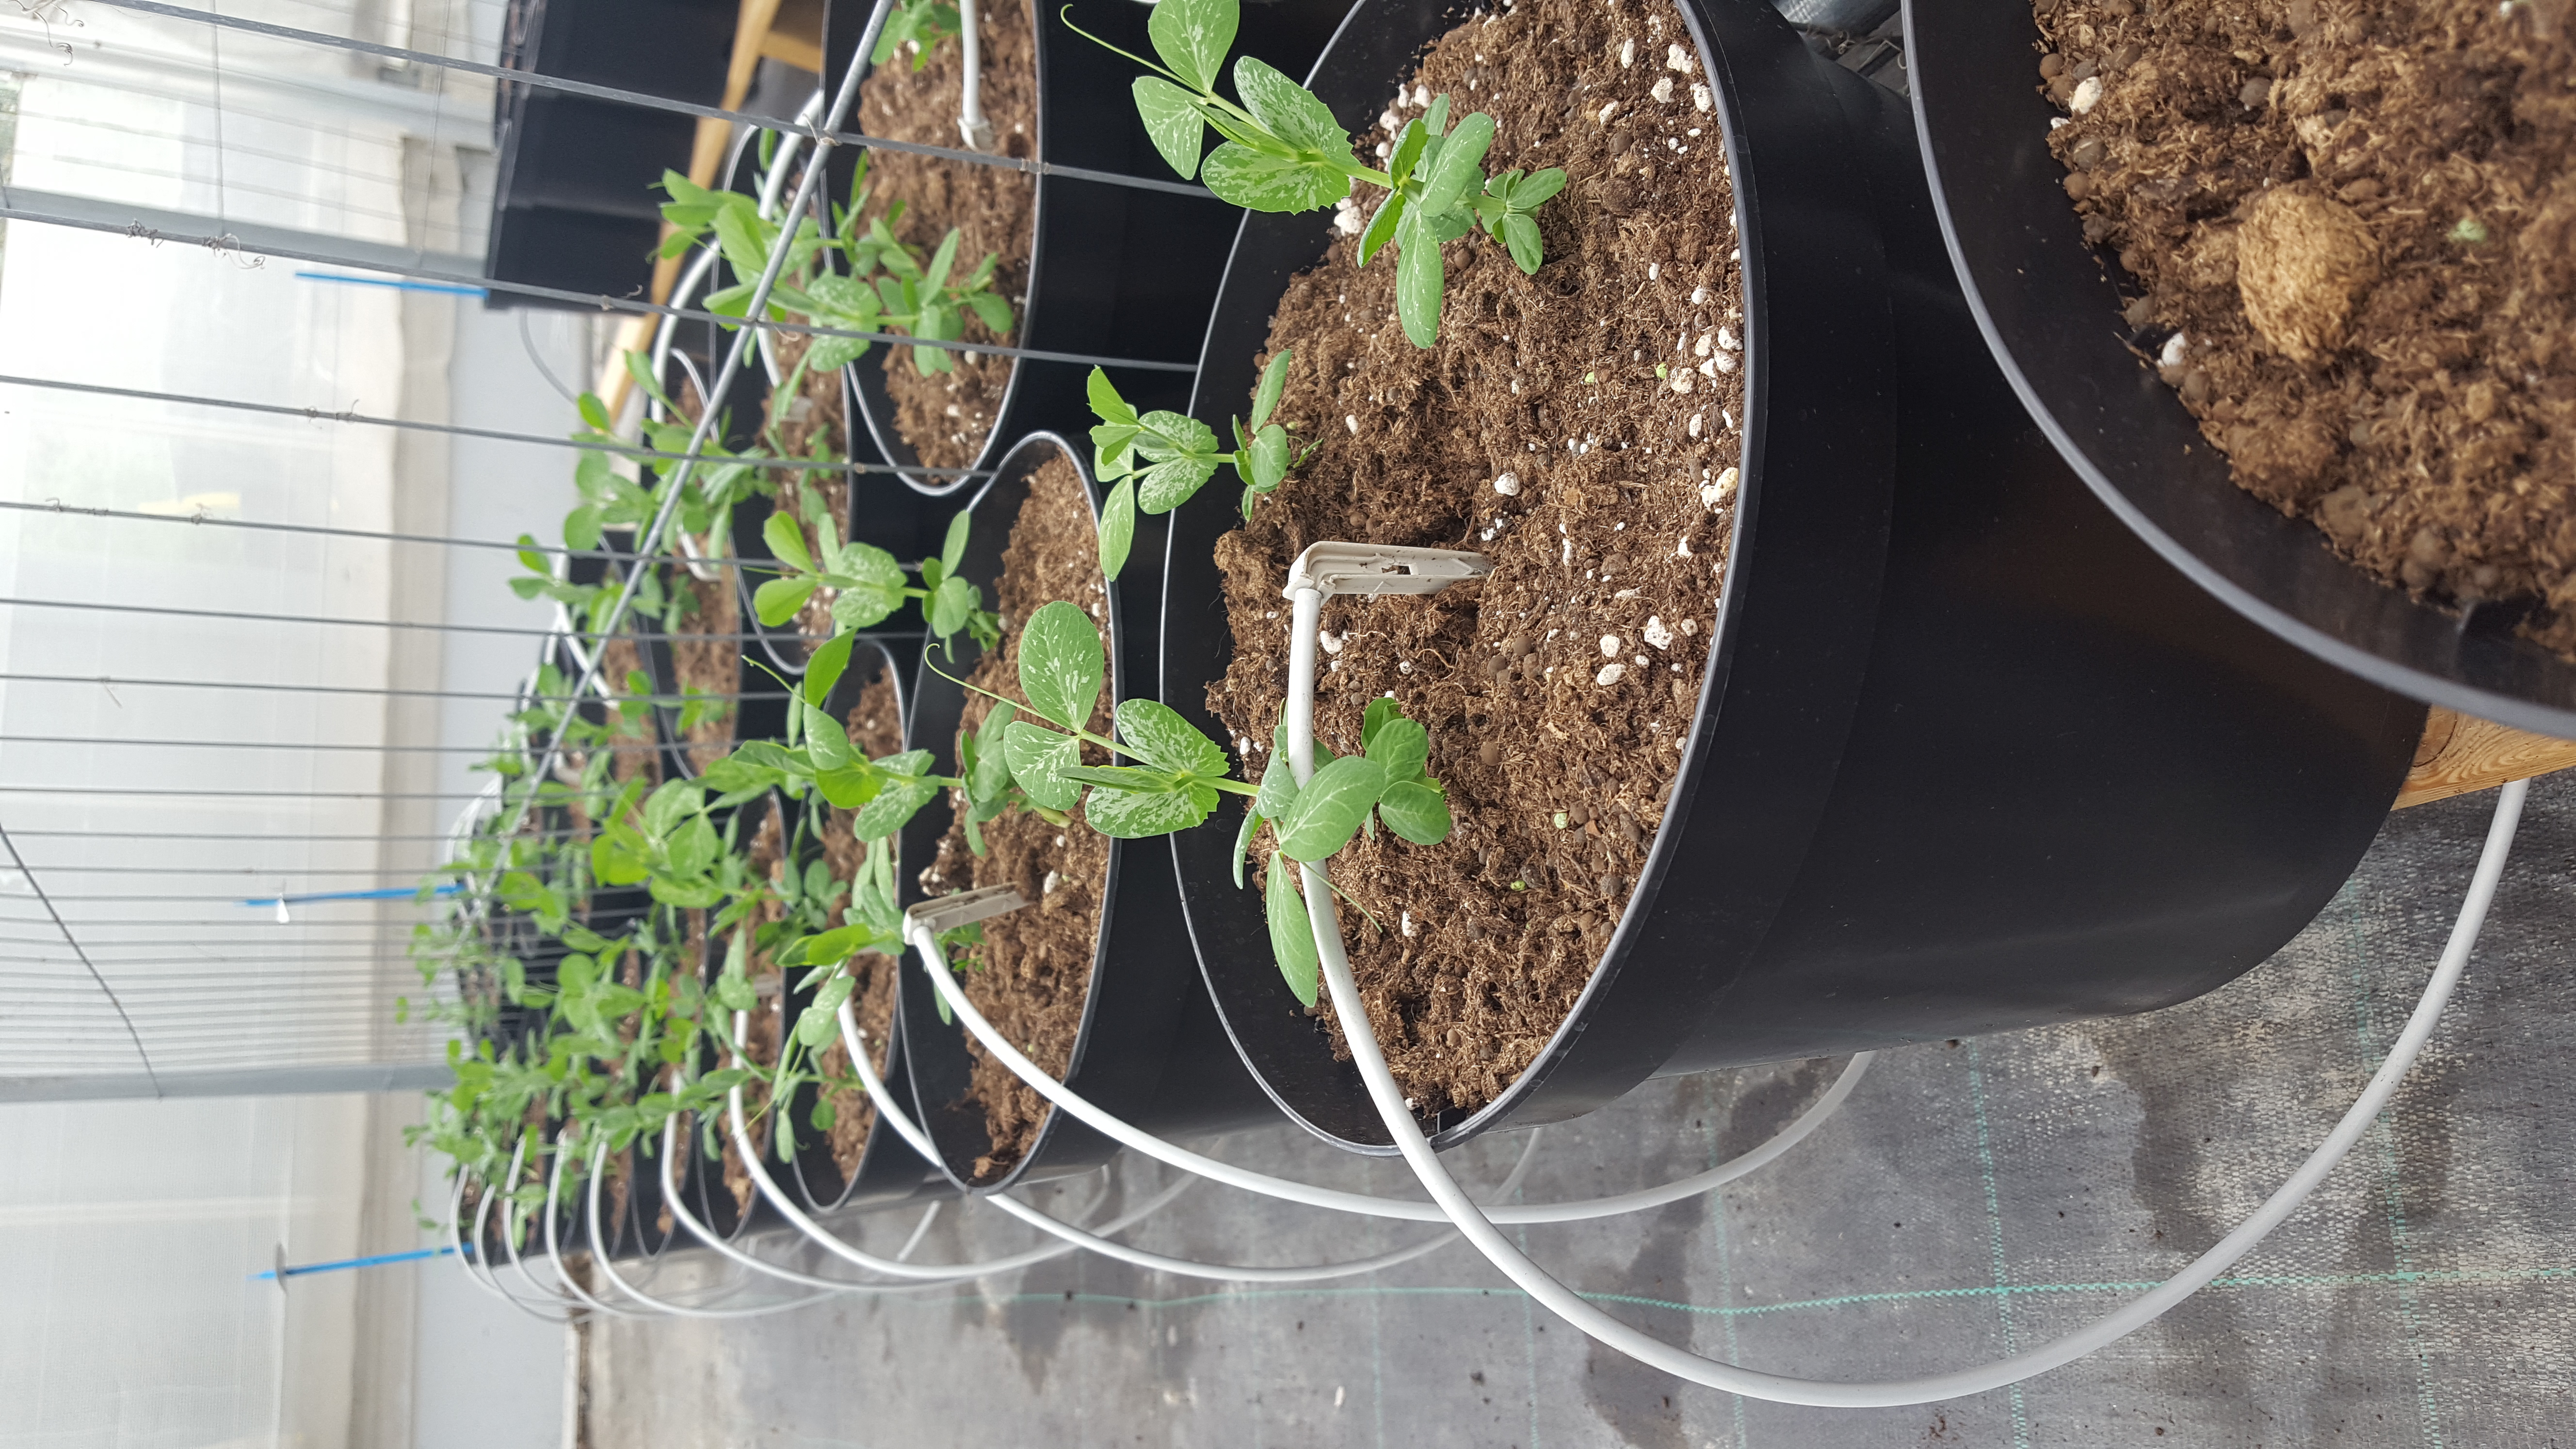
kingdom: Plantae
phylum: Tracheophyta
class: Magnoliopsida
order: Fabales
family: Fabaceae
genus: Lathyrus
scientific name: Lathyrus oleraceus
